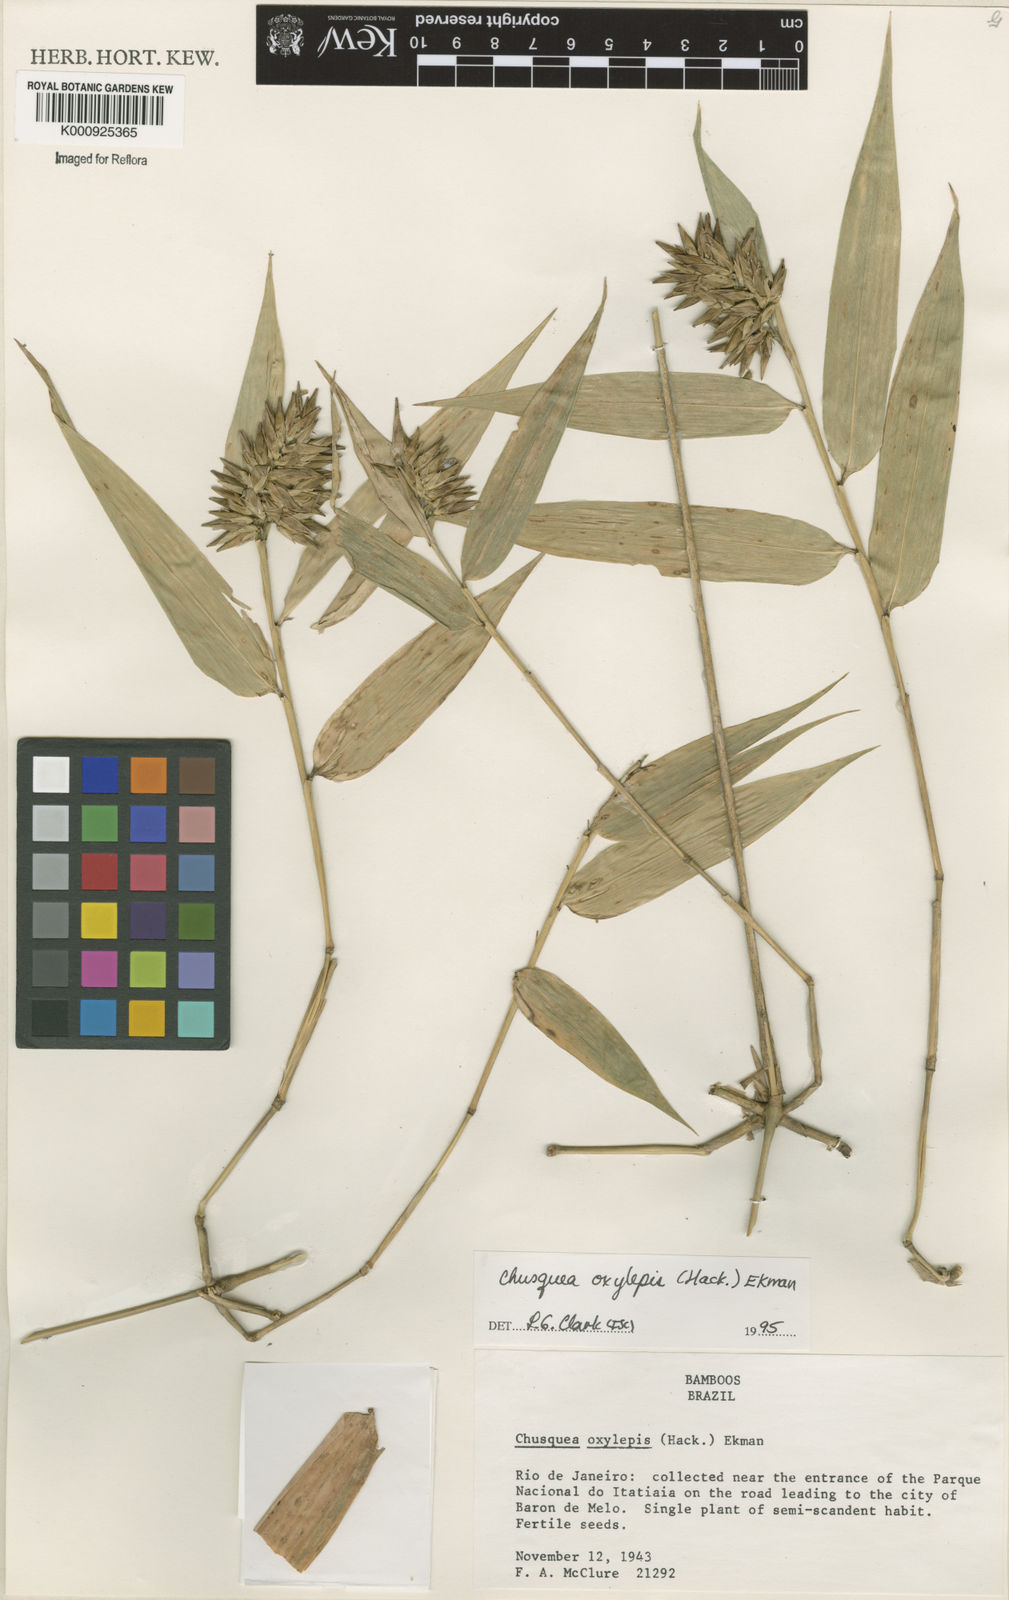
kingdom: Plantae
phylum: Tracheophyta
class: Liliopsida
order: Poales
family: Poaceae
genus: Chusquea
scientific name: Chusquea oxylepis
